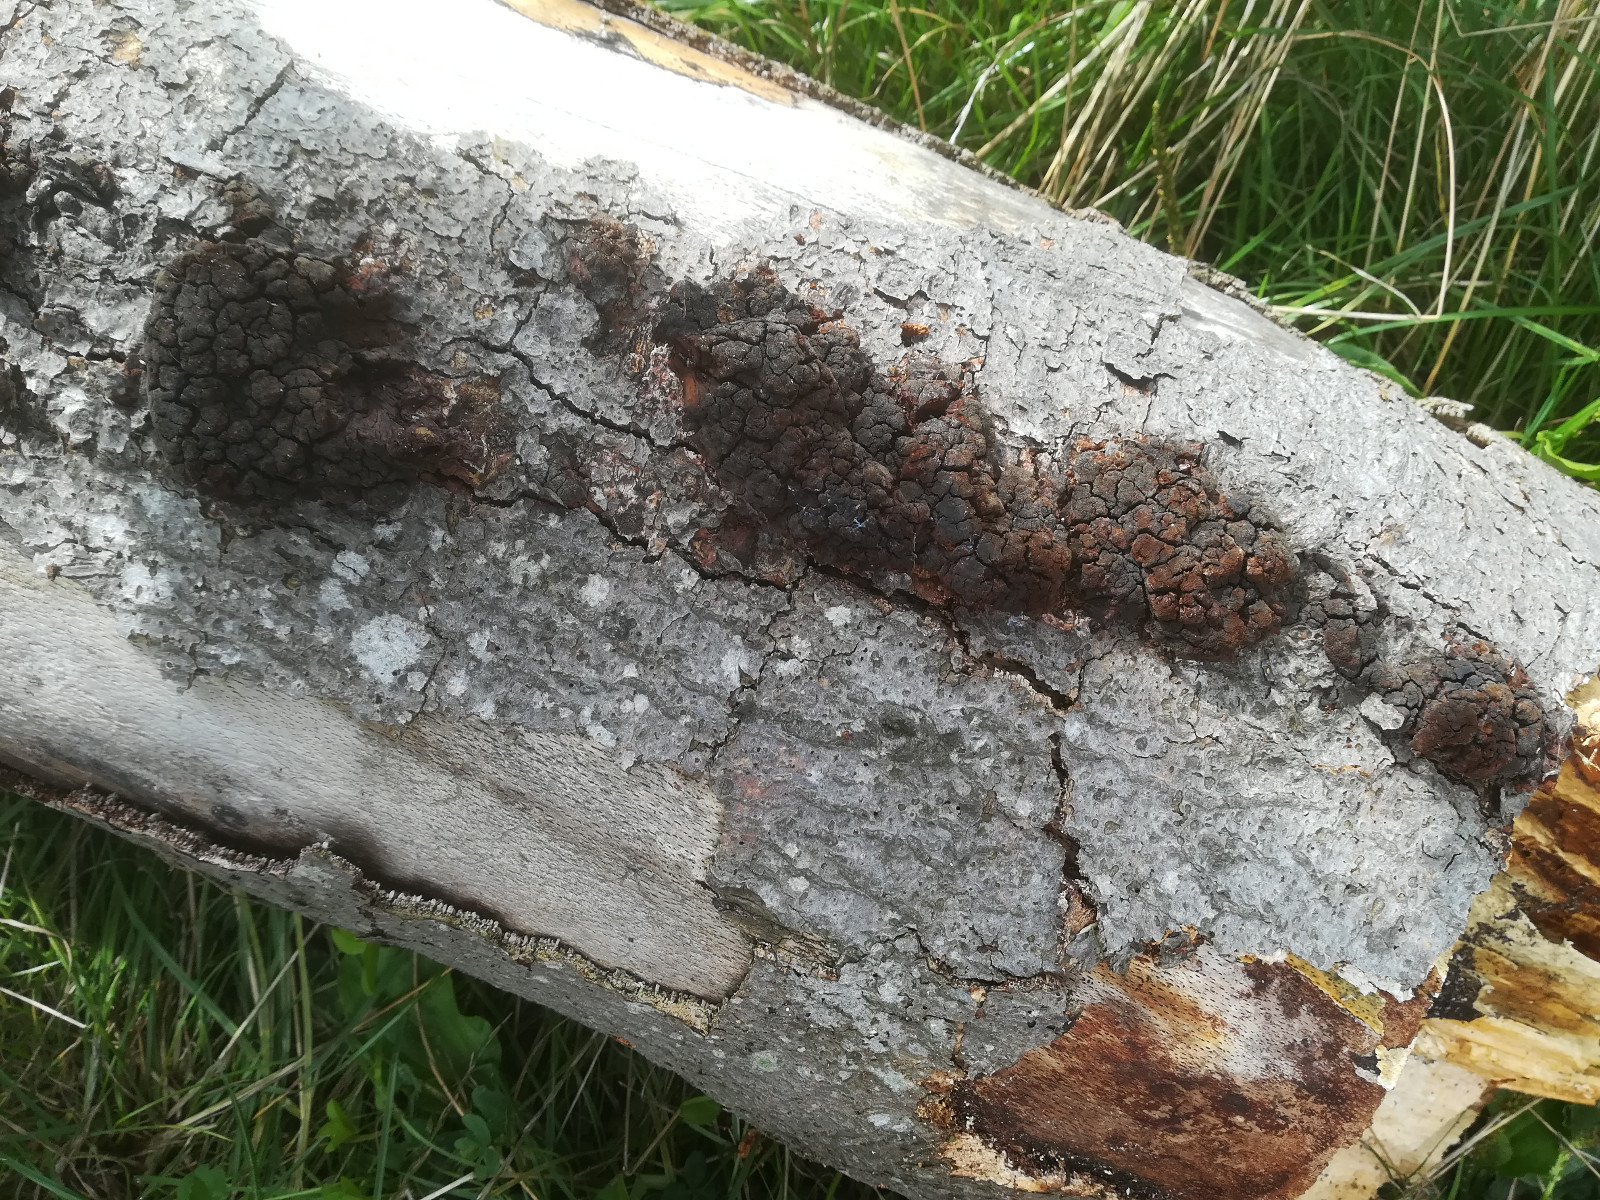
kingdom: Fungi
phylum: Basidiomycota
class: Agaricomycetes
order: Hymenochaetales
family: Hymenochaetaceae
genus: Mensularia
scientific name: Mensularia nodulosa
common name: bøge-spejlporesvamp
